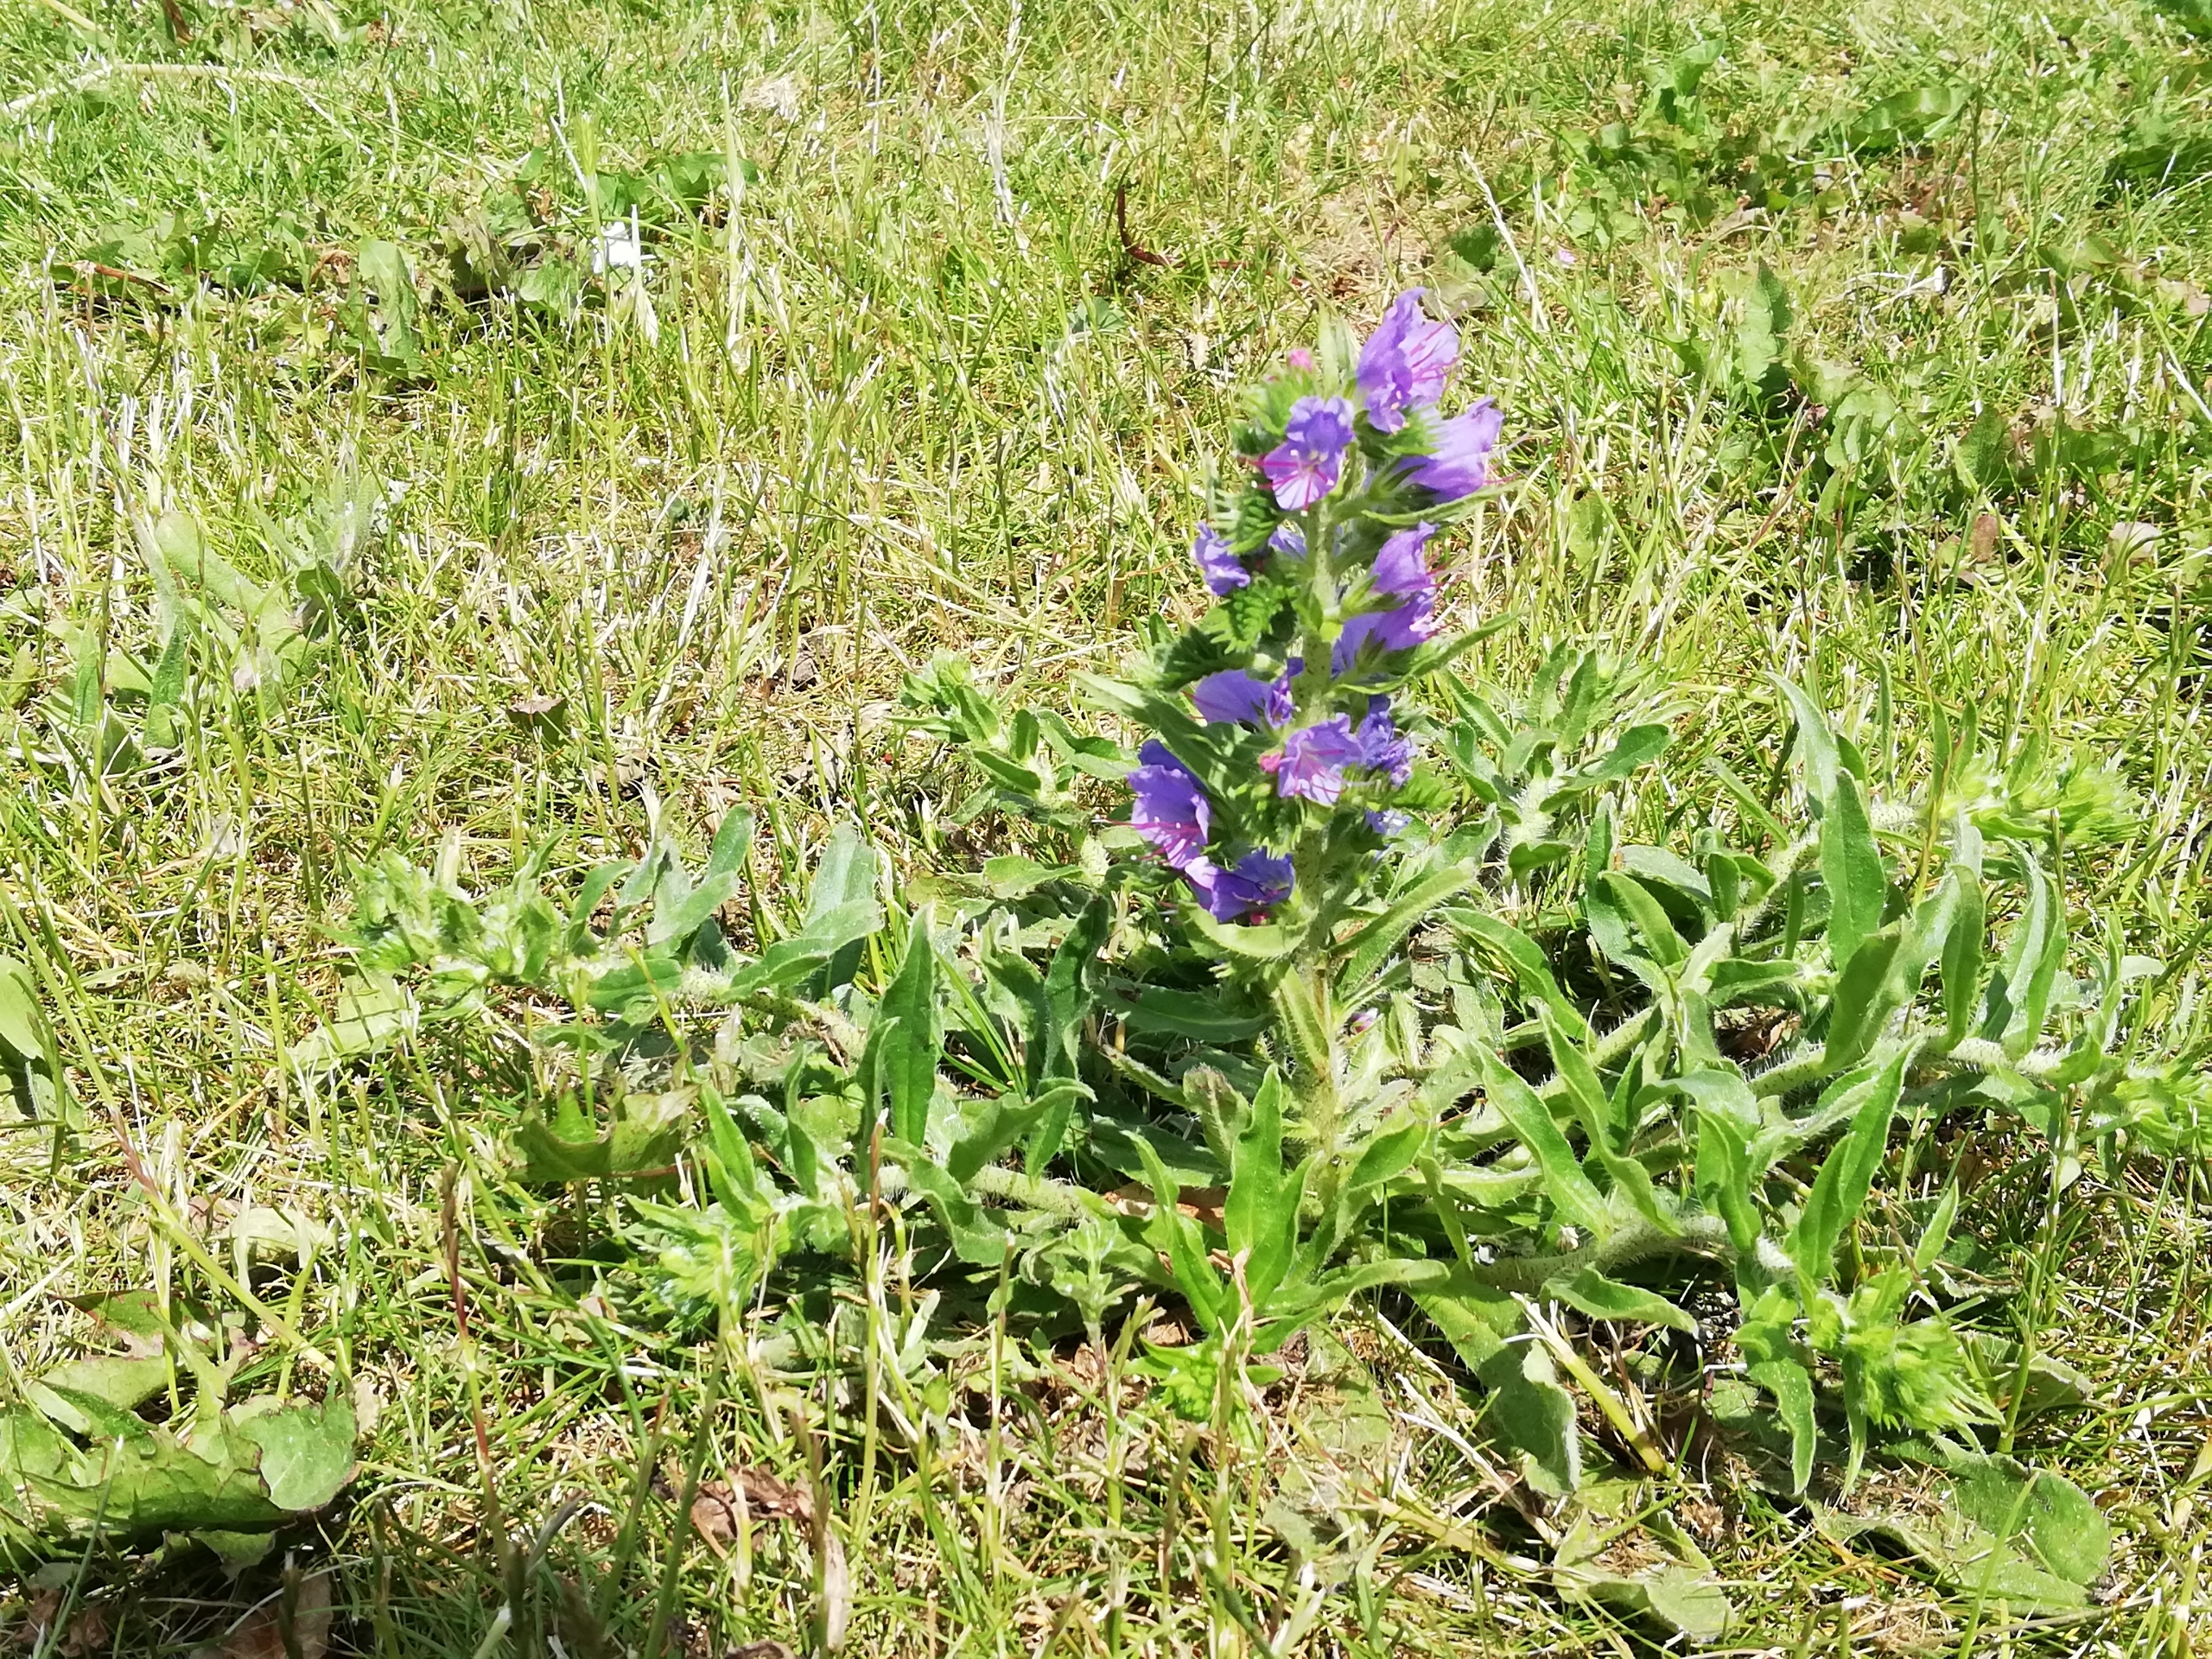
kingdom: Plantae
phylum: Tracheophyta
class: Magnoliopsida
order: Boraginales
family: Boraginaceae
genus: Echium
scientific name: Echium vulgare
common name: Slangehoved
